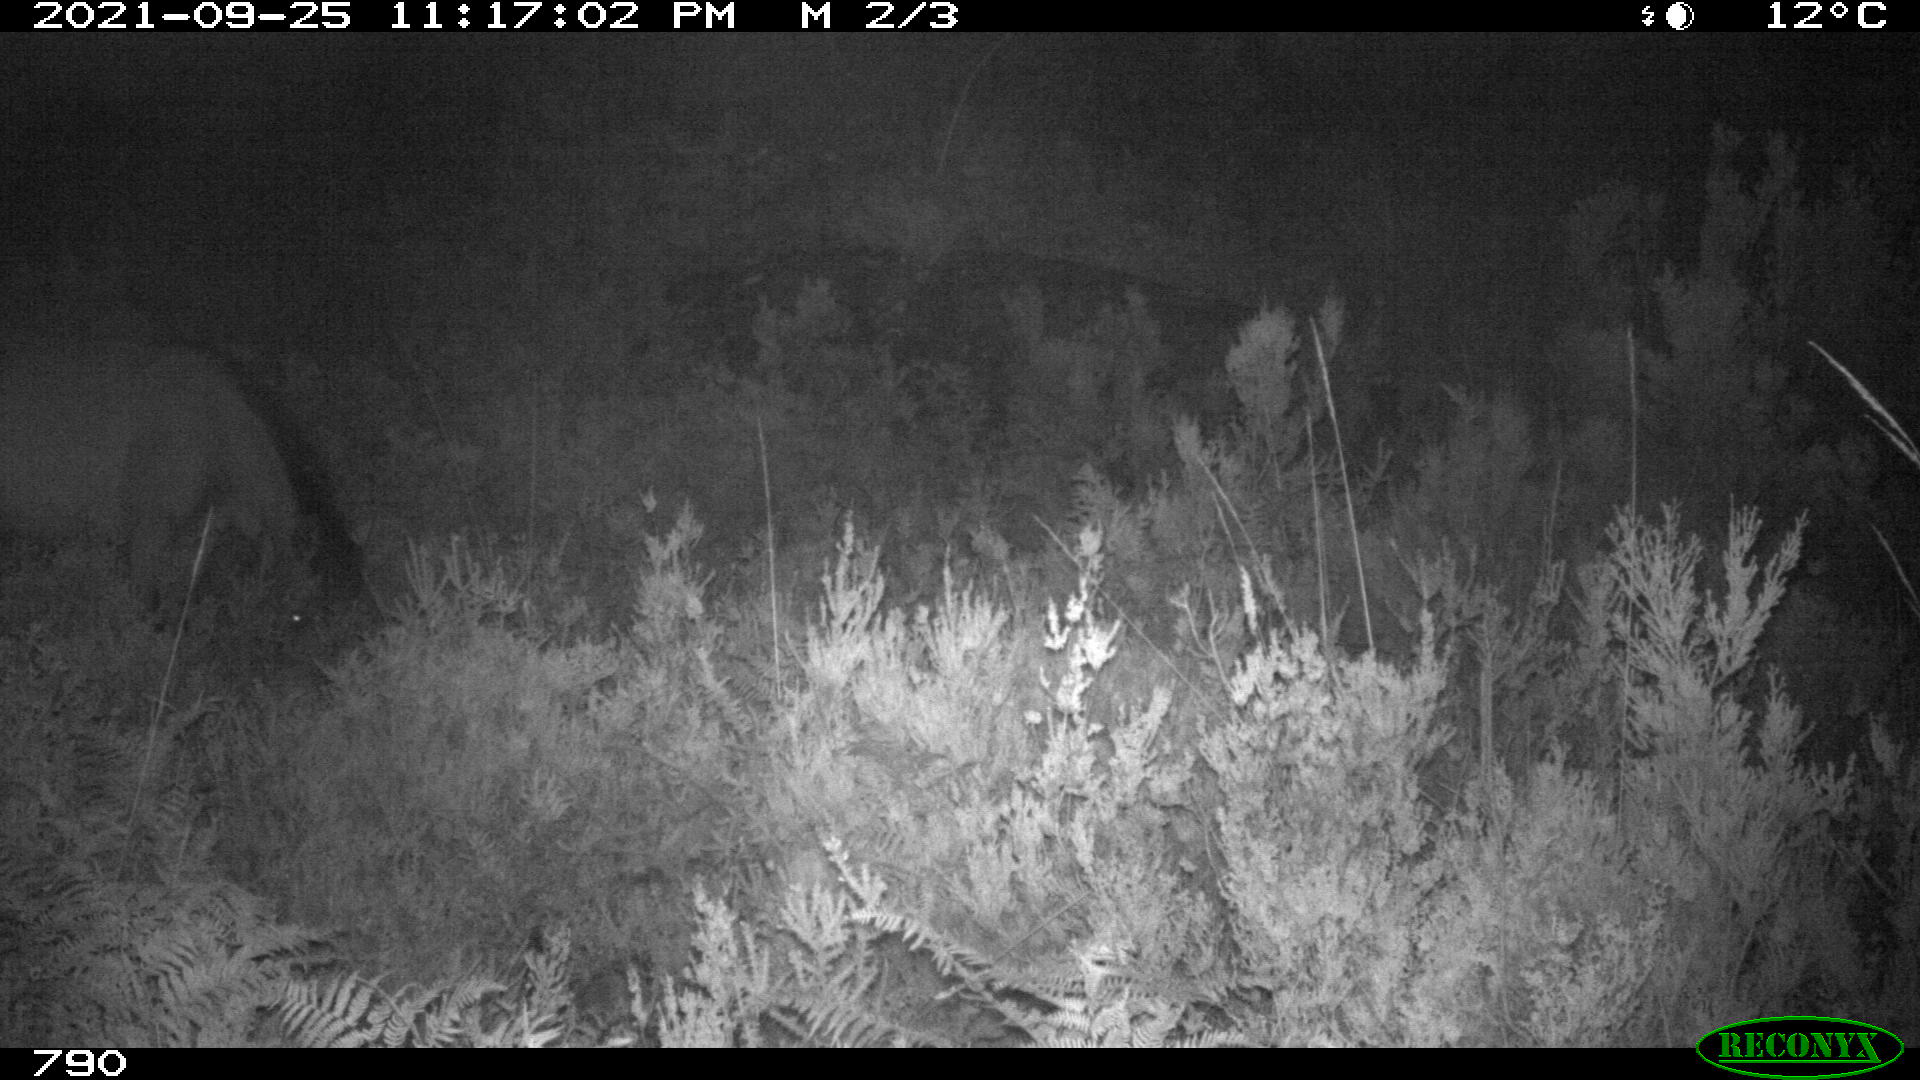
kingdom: Animalia
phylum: Chordata
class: Mammalia
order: Perissodactyla
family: Equidae
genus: Equus
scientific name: Equus caballus
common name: Horse
